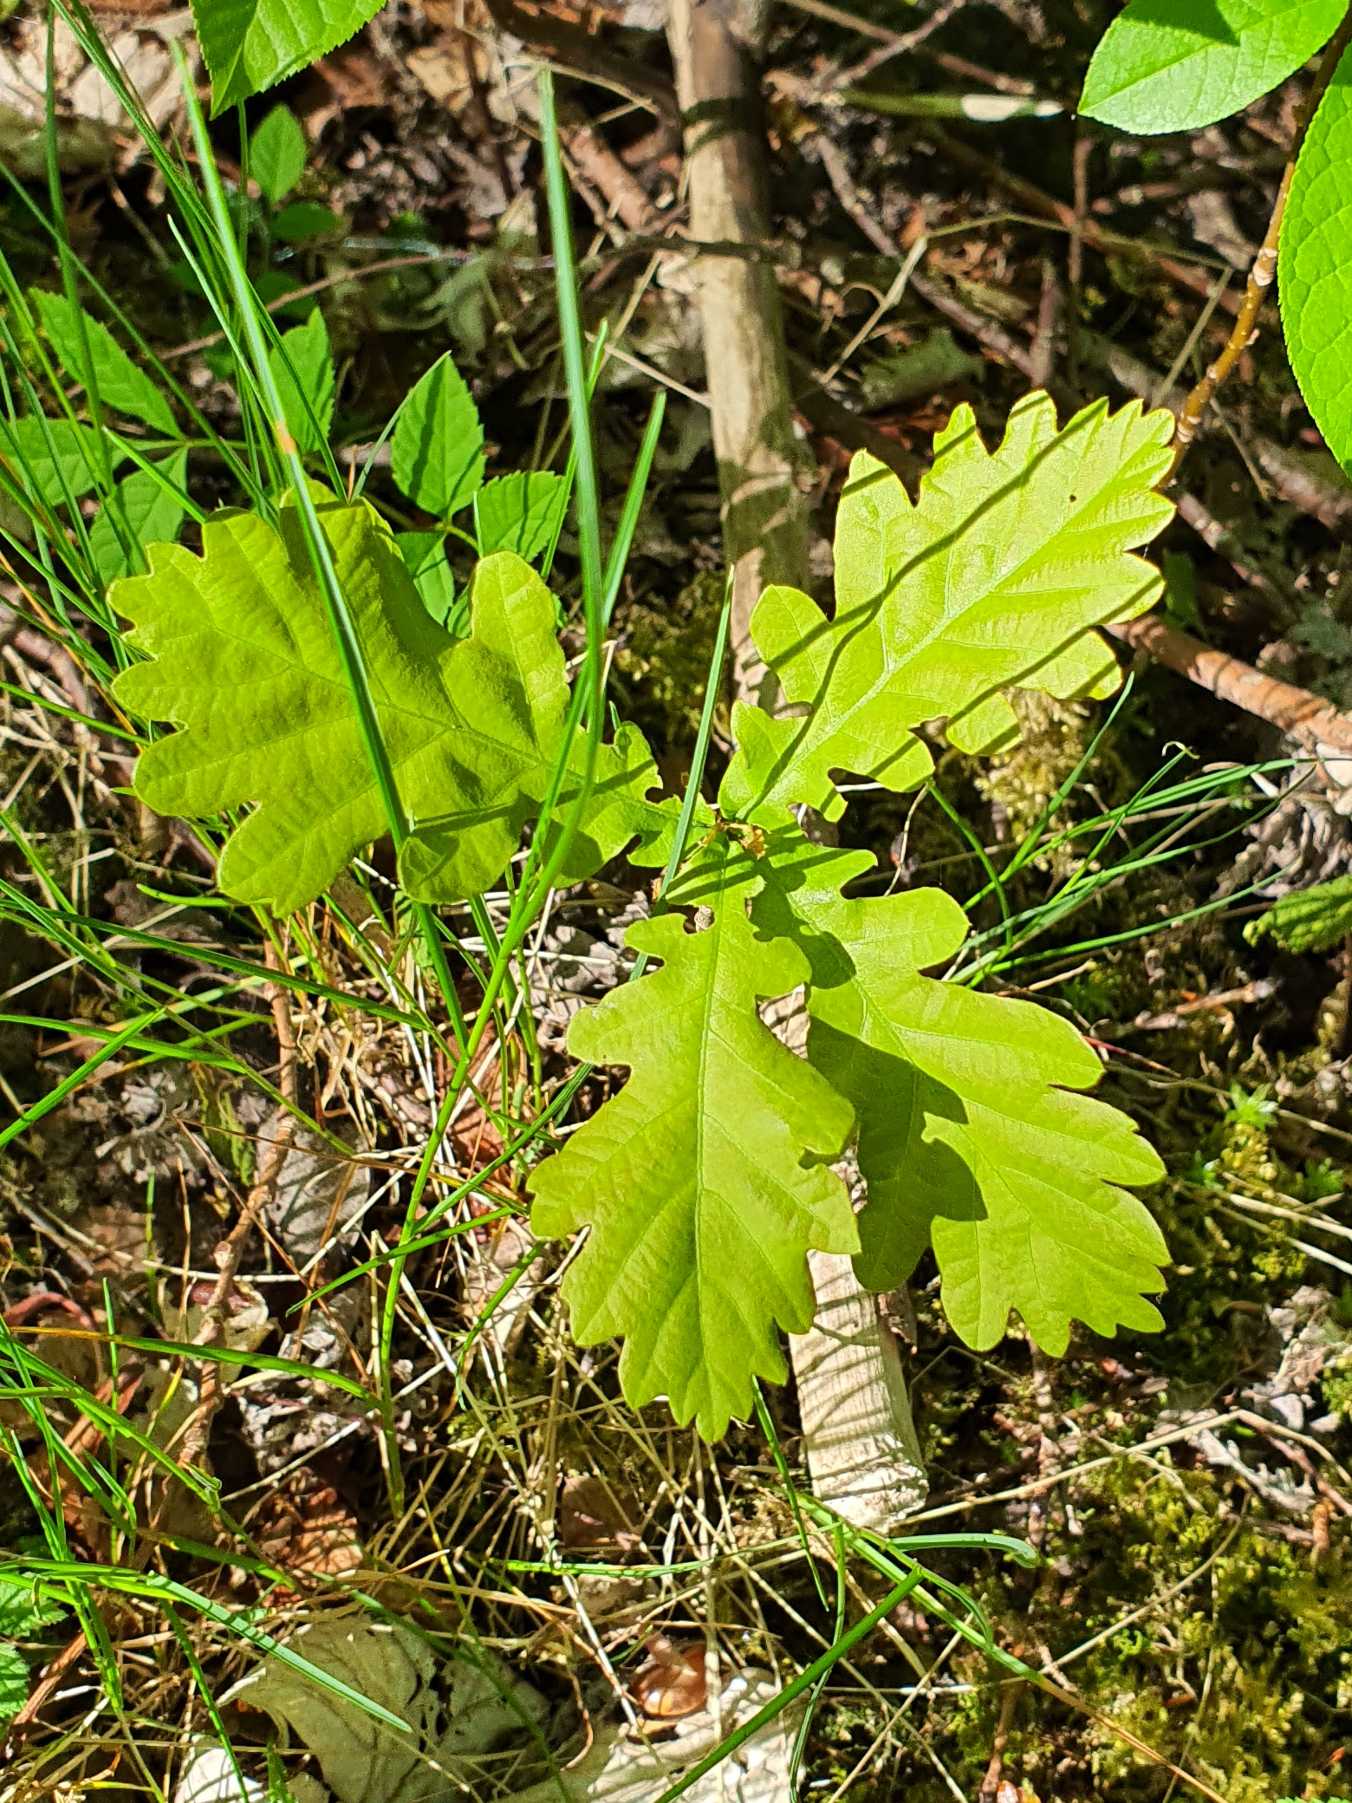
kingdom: Plantae
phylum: Tracheophyta
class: Magnoliopsida
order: Fagales
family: Fagaceae
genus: Quercus
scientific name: Quercus robur
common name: Stilk-eg/almindelig eg
